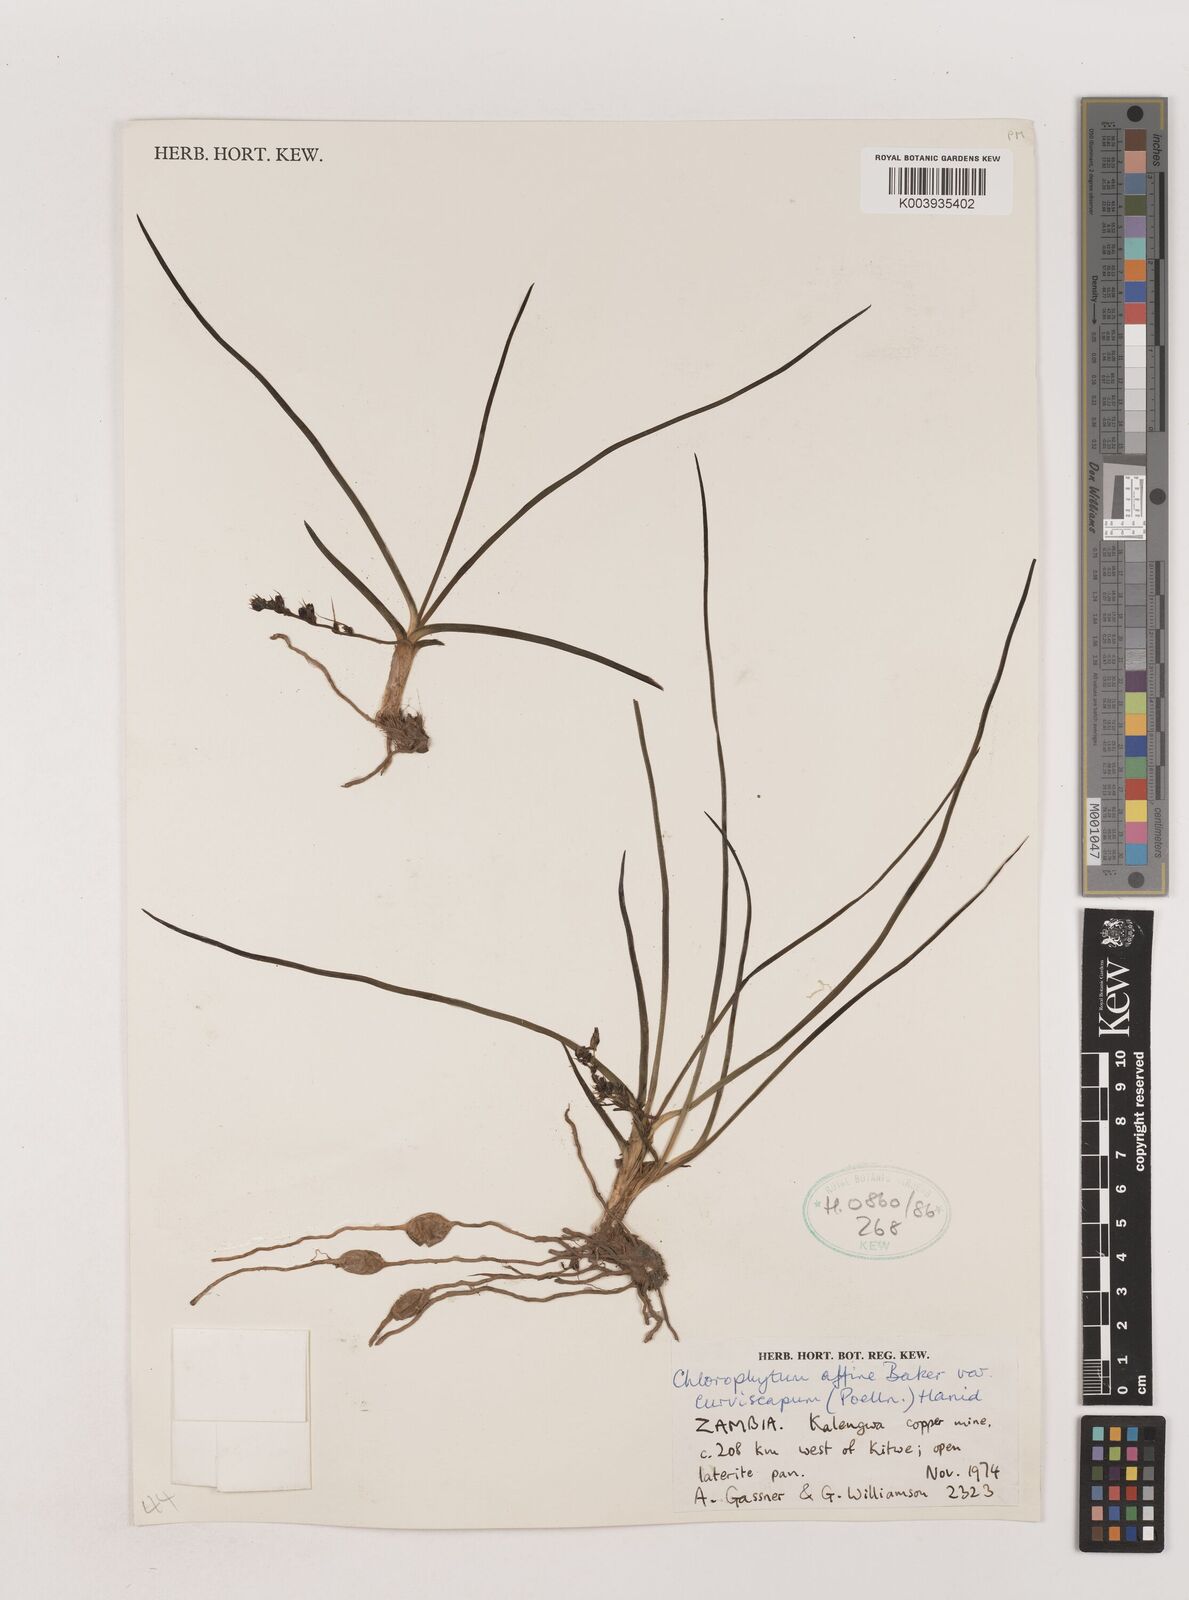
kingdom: Plantae
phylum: Tracheophyta
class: Liliopsida
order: Asparagales
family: Asparagaceae
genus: Chlorophytum
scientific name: Chlorophytum tordense
